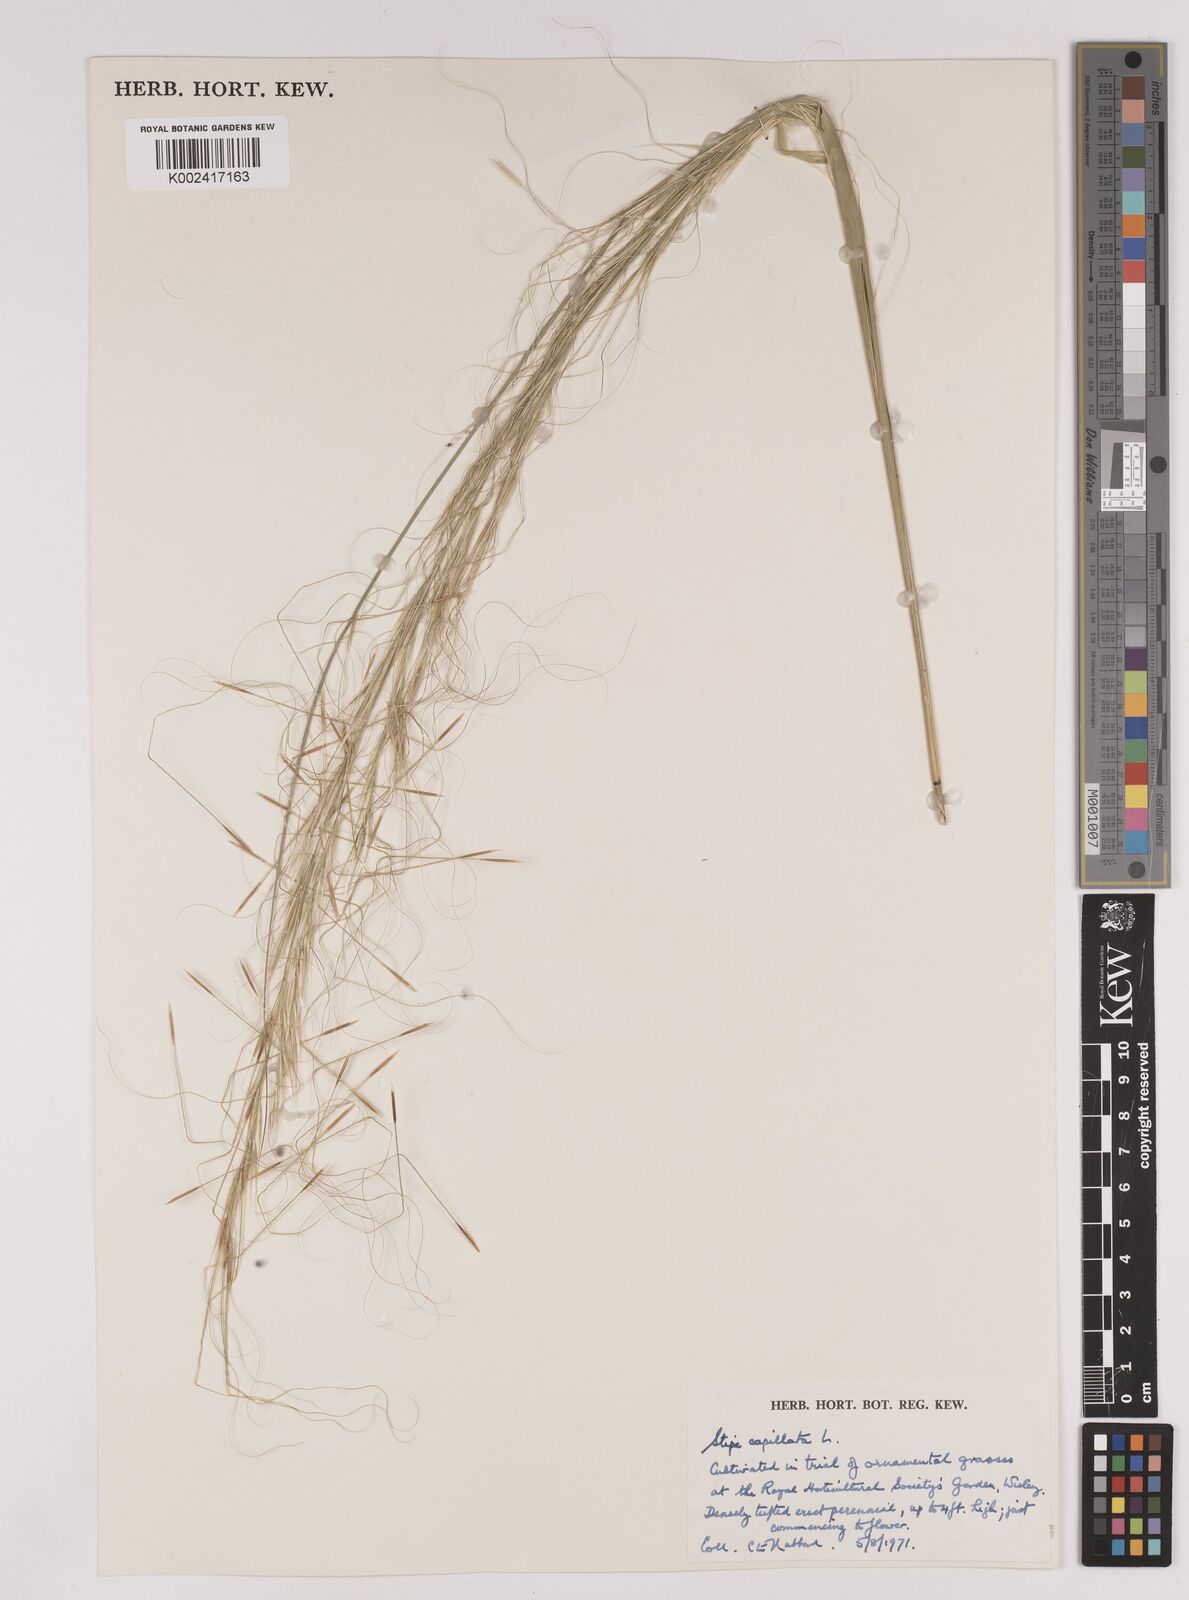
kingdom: Plantae
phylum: Tracheophyta
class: Liliopsida
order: Poales
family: Poaceae
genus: Stipa
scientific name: Stipa capillata
